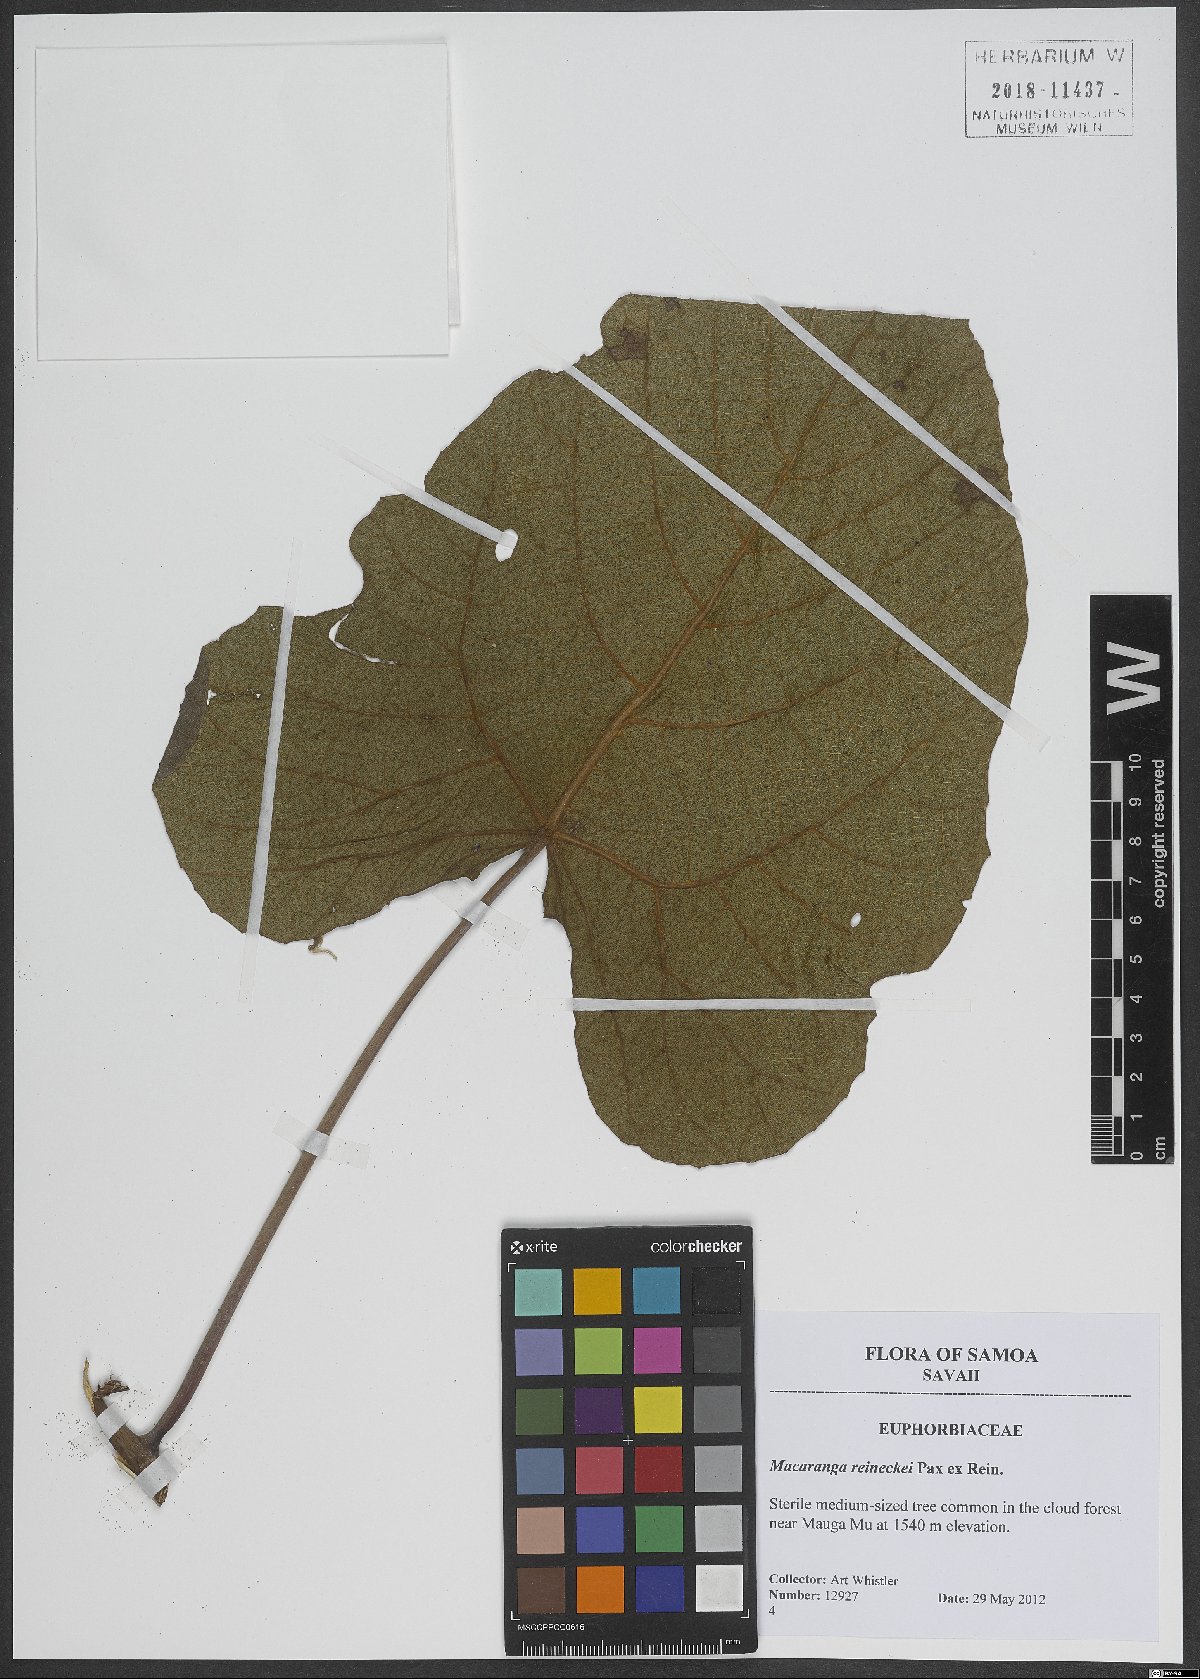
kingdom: Plantae
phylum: Tracheophyta
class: Magnoliopsida
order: Malpighiales
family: Euphorbiaceae
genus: Homalanthus
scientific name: Homalanthus acuminatus
